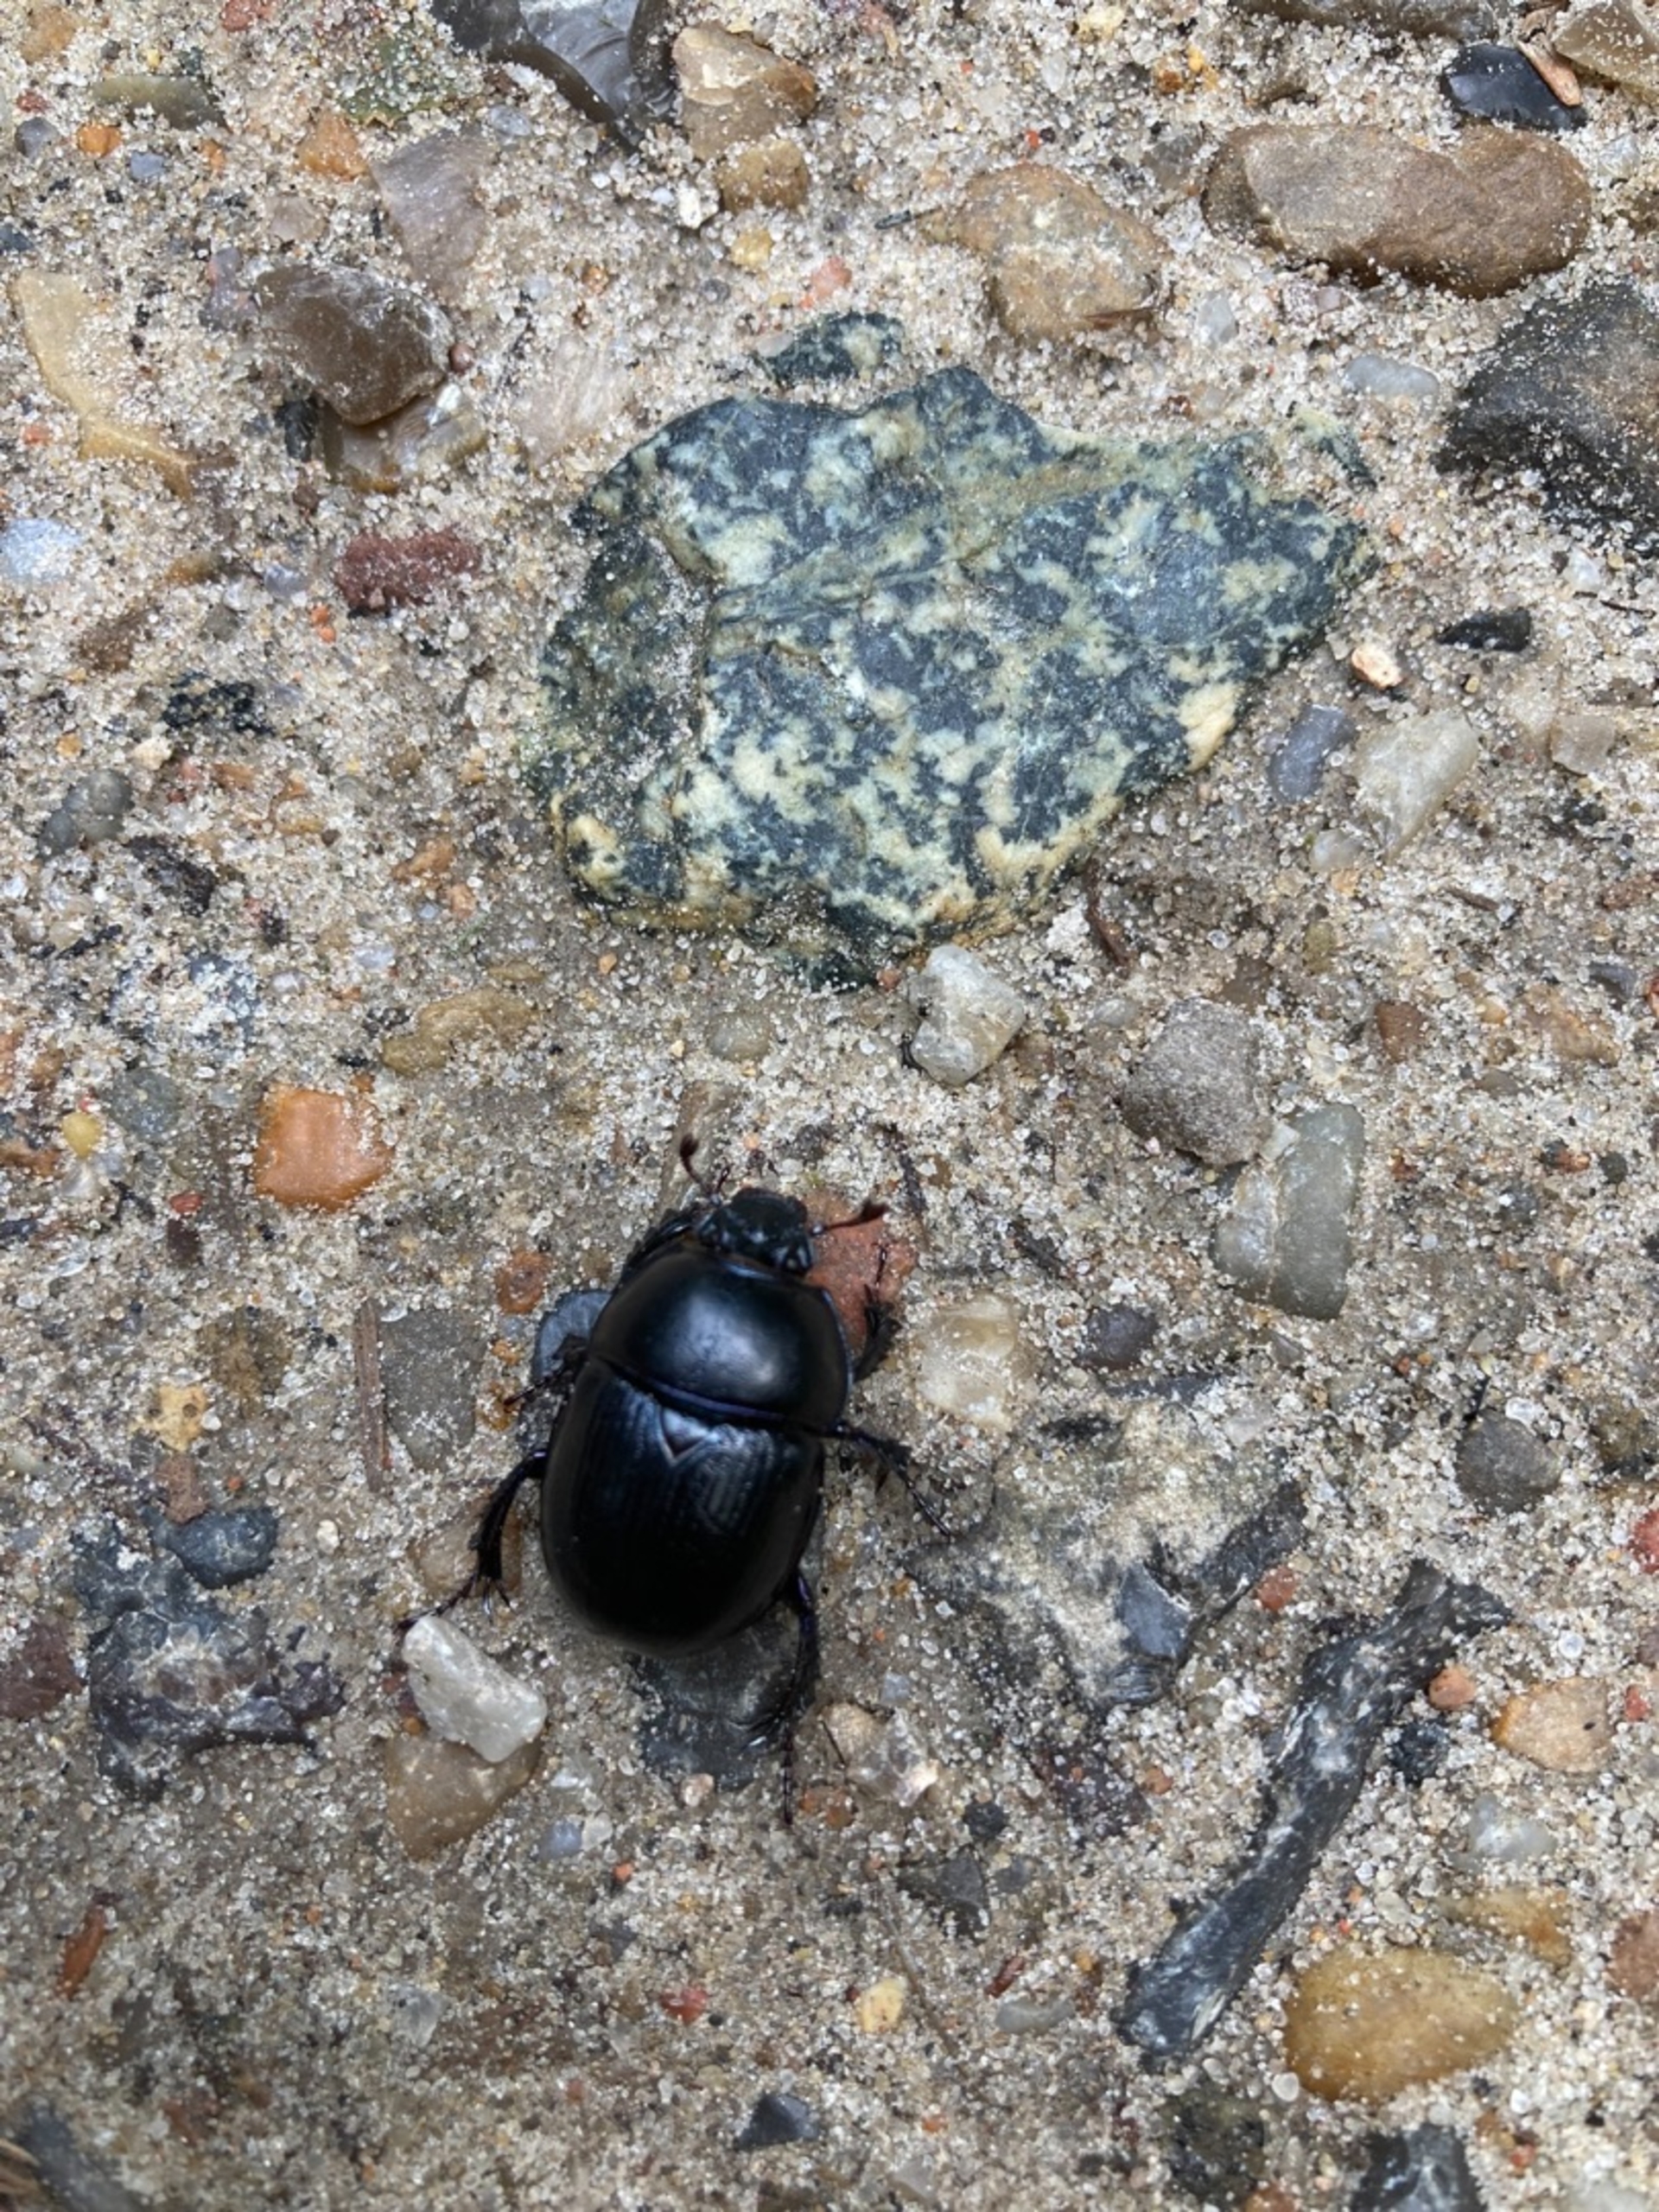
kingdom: Animalia
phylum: Arthropoda
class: Insecta
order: Coleoptera
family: Geotrupidae
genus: Anoplotrupes
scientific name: Anoplotrupes stercorosus
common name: Skovskarnbasse
